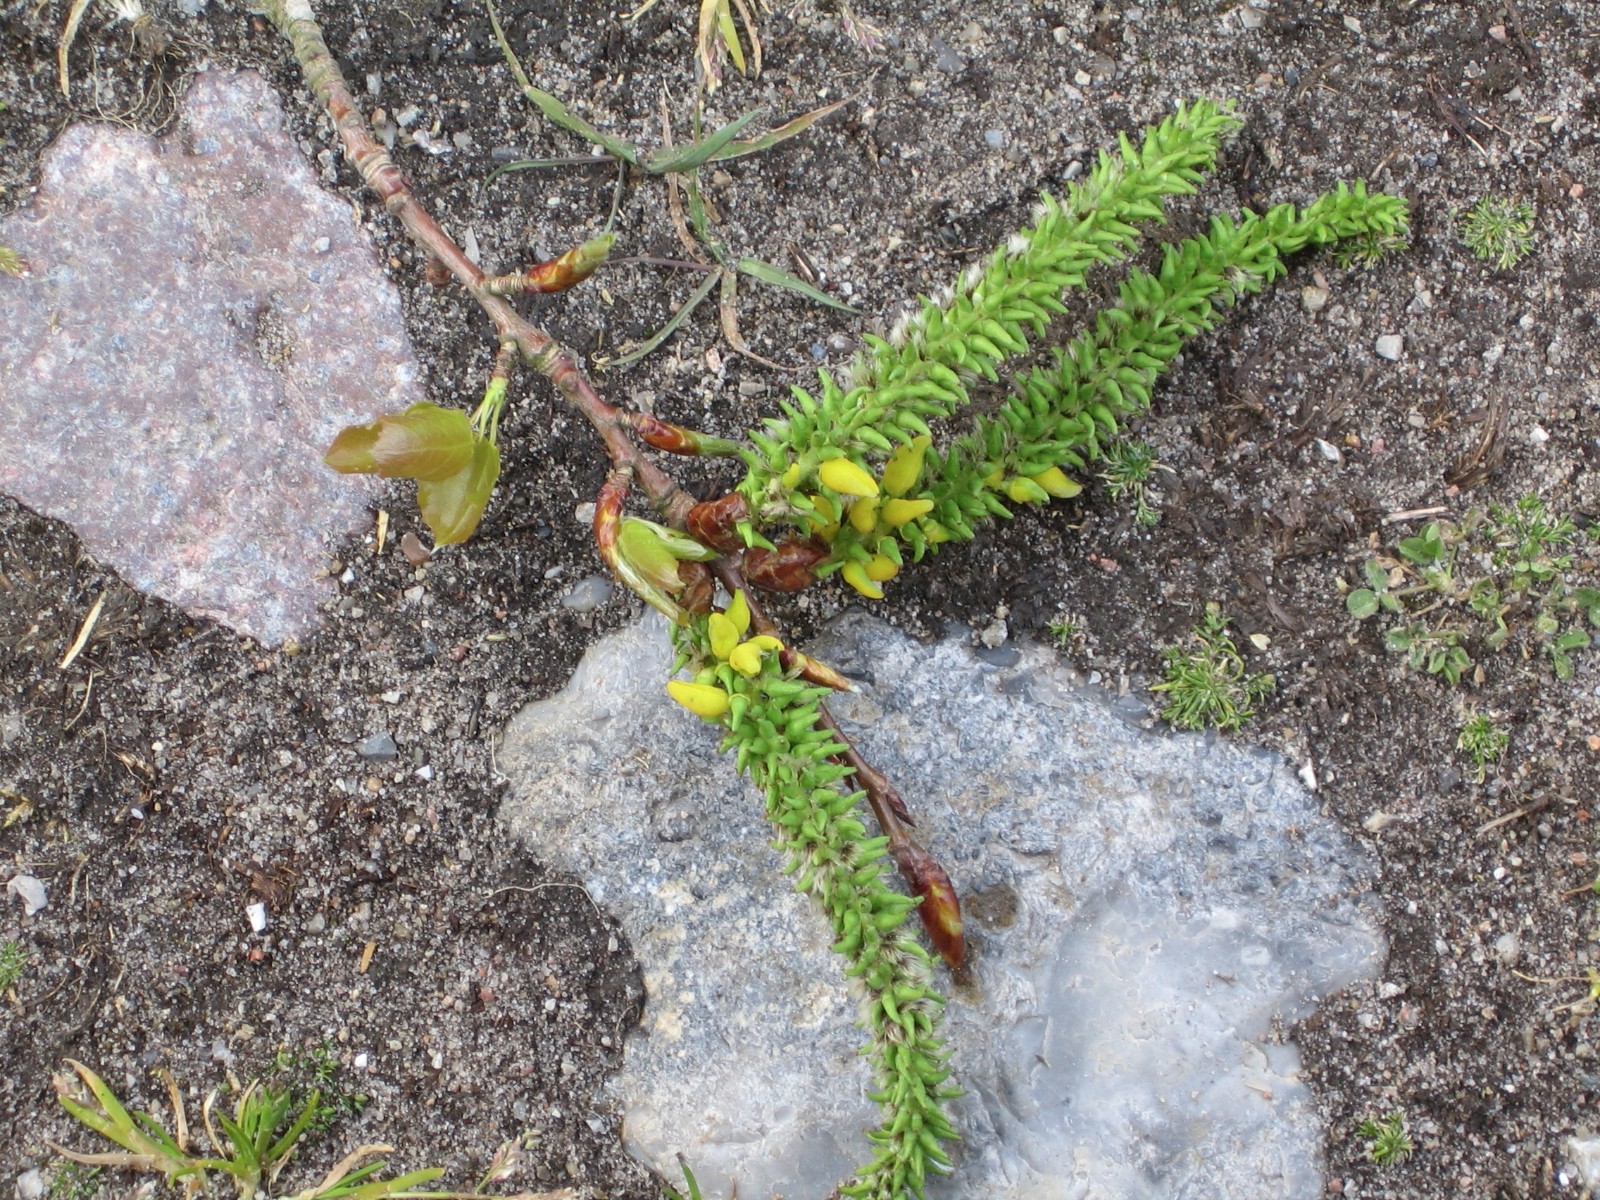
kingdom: Fungi
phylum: Ascomycota
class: Taphrinomycetes
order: Taphrinales
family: Taphrinaceae
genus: Taphrina
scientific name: Taphrina johansonii
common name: Aspen tongue
